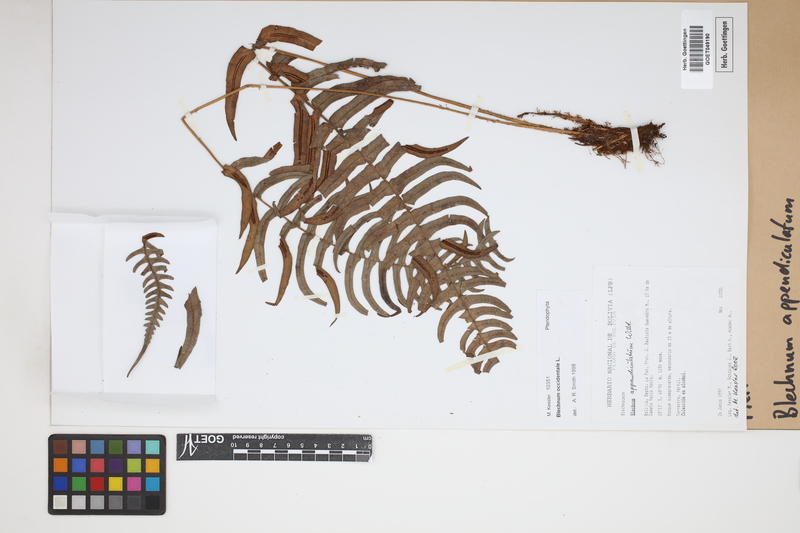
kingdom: Plantae
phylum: Tracheophyta
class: Polypodiopsida
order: Polypodiales
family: Blechnaceae
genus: Blechnum
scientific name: Blechnum appendiculatum
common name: Palm fern
